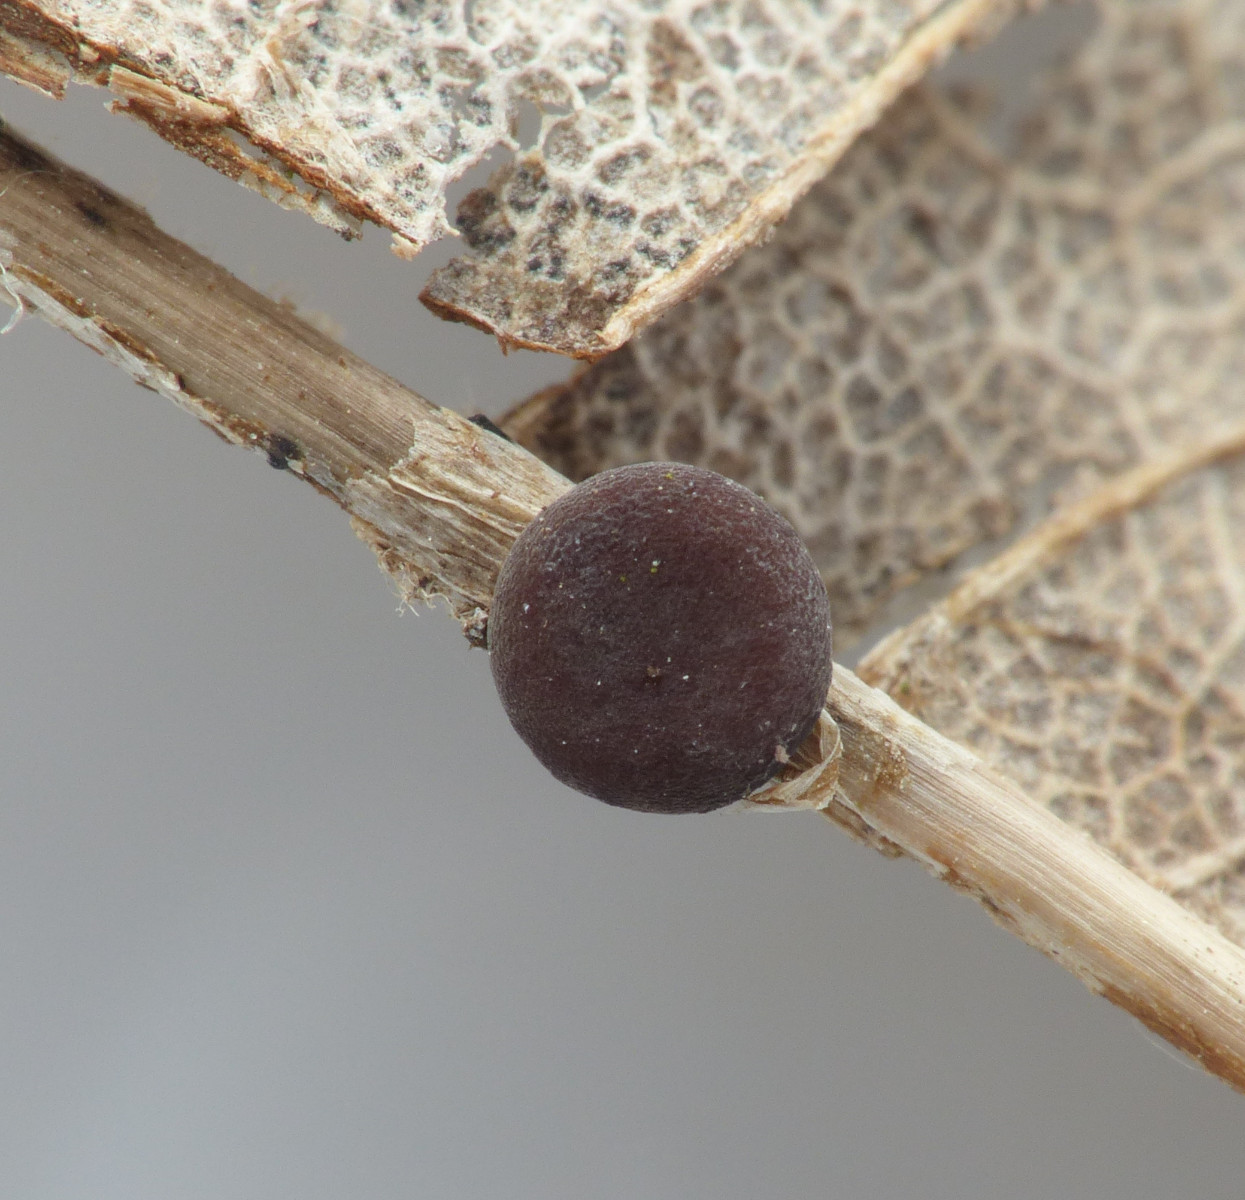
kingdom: Fungi
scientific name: Fungi
